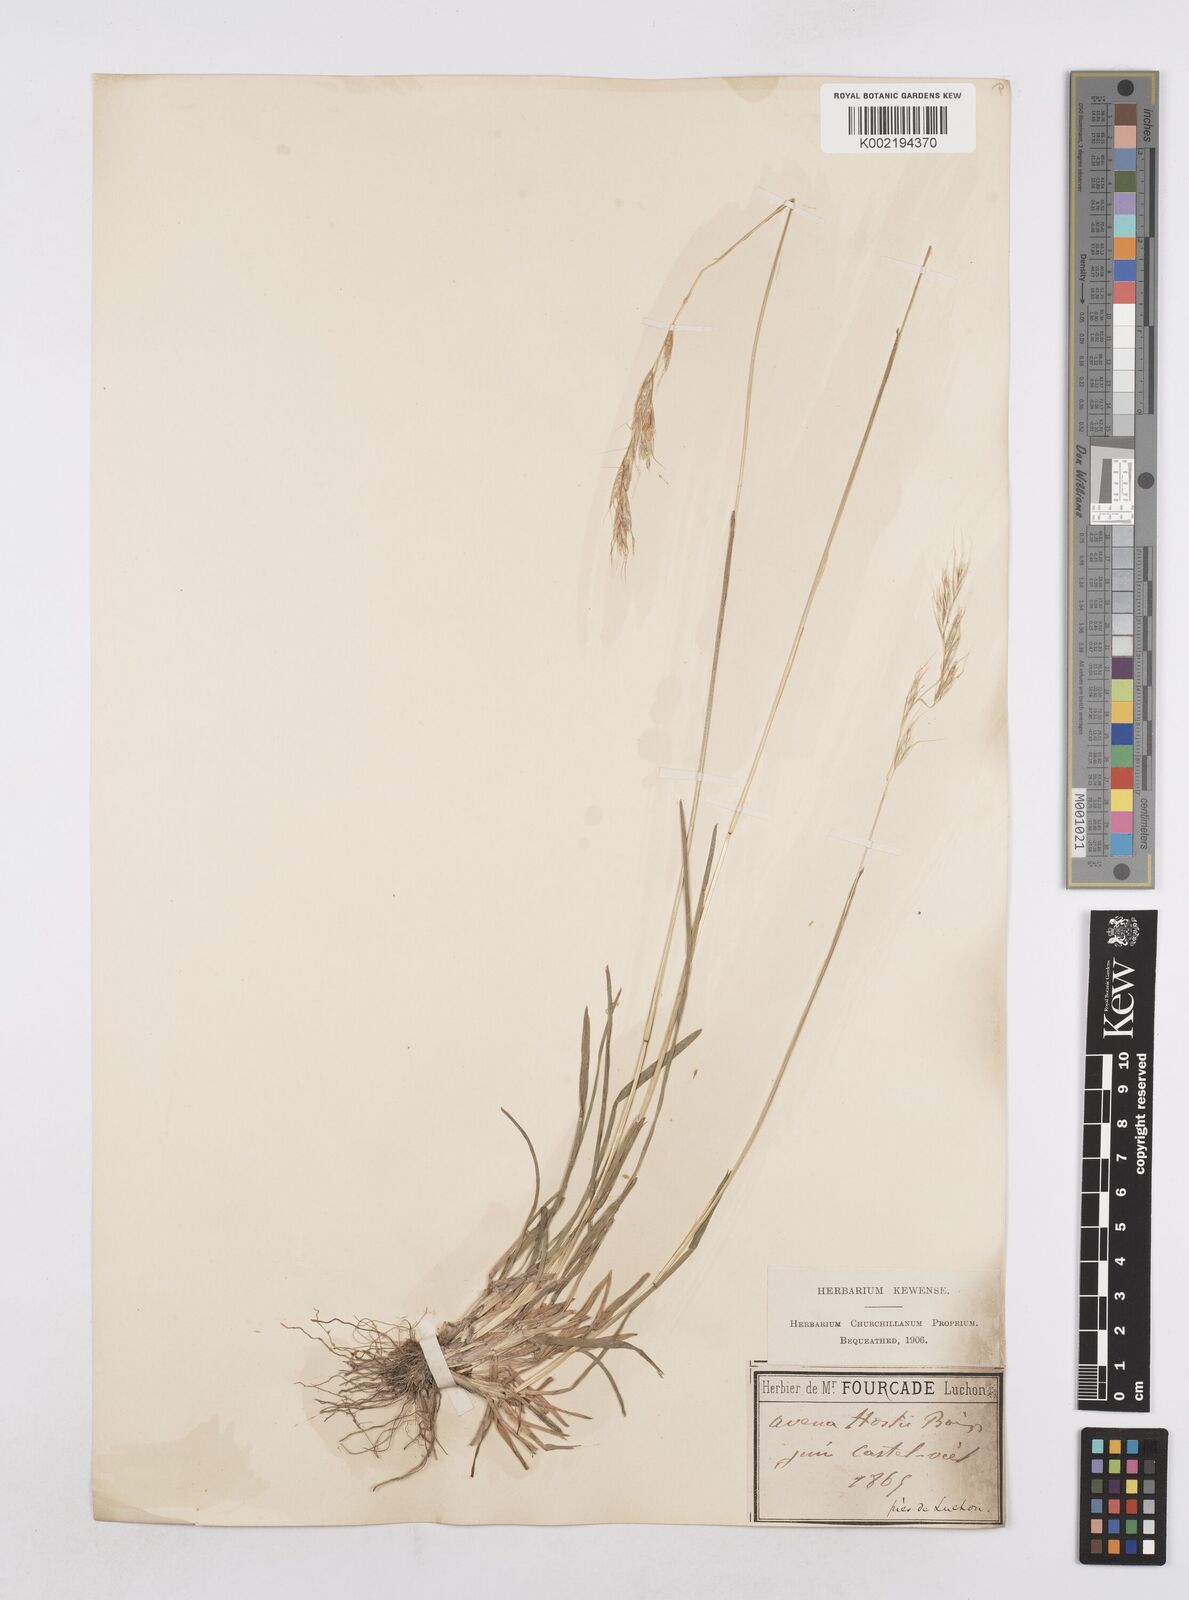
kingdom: Plantae
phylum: Tracheophyta
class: Liliopsida
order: Poales
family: Poaceae
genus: Helictotrichon
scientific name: Helictotrichon parlatorei
